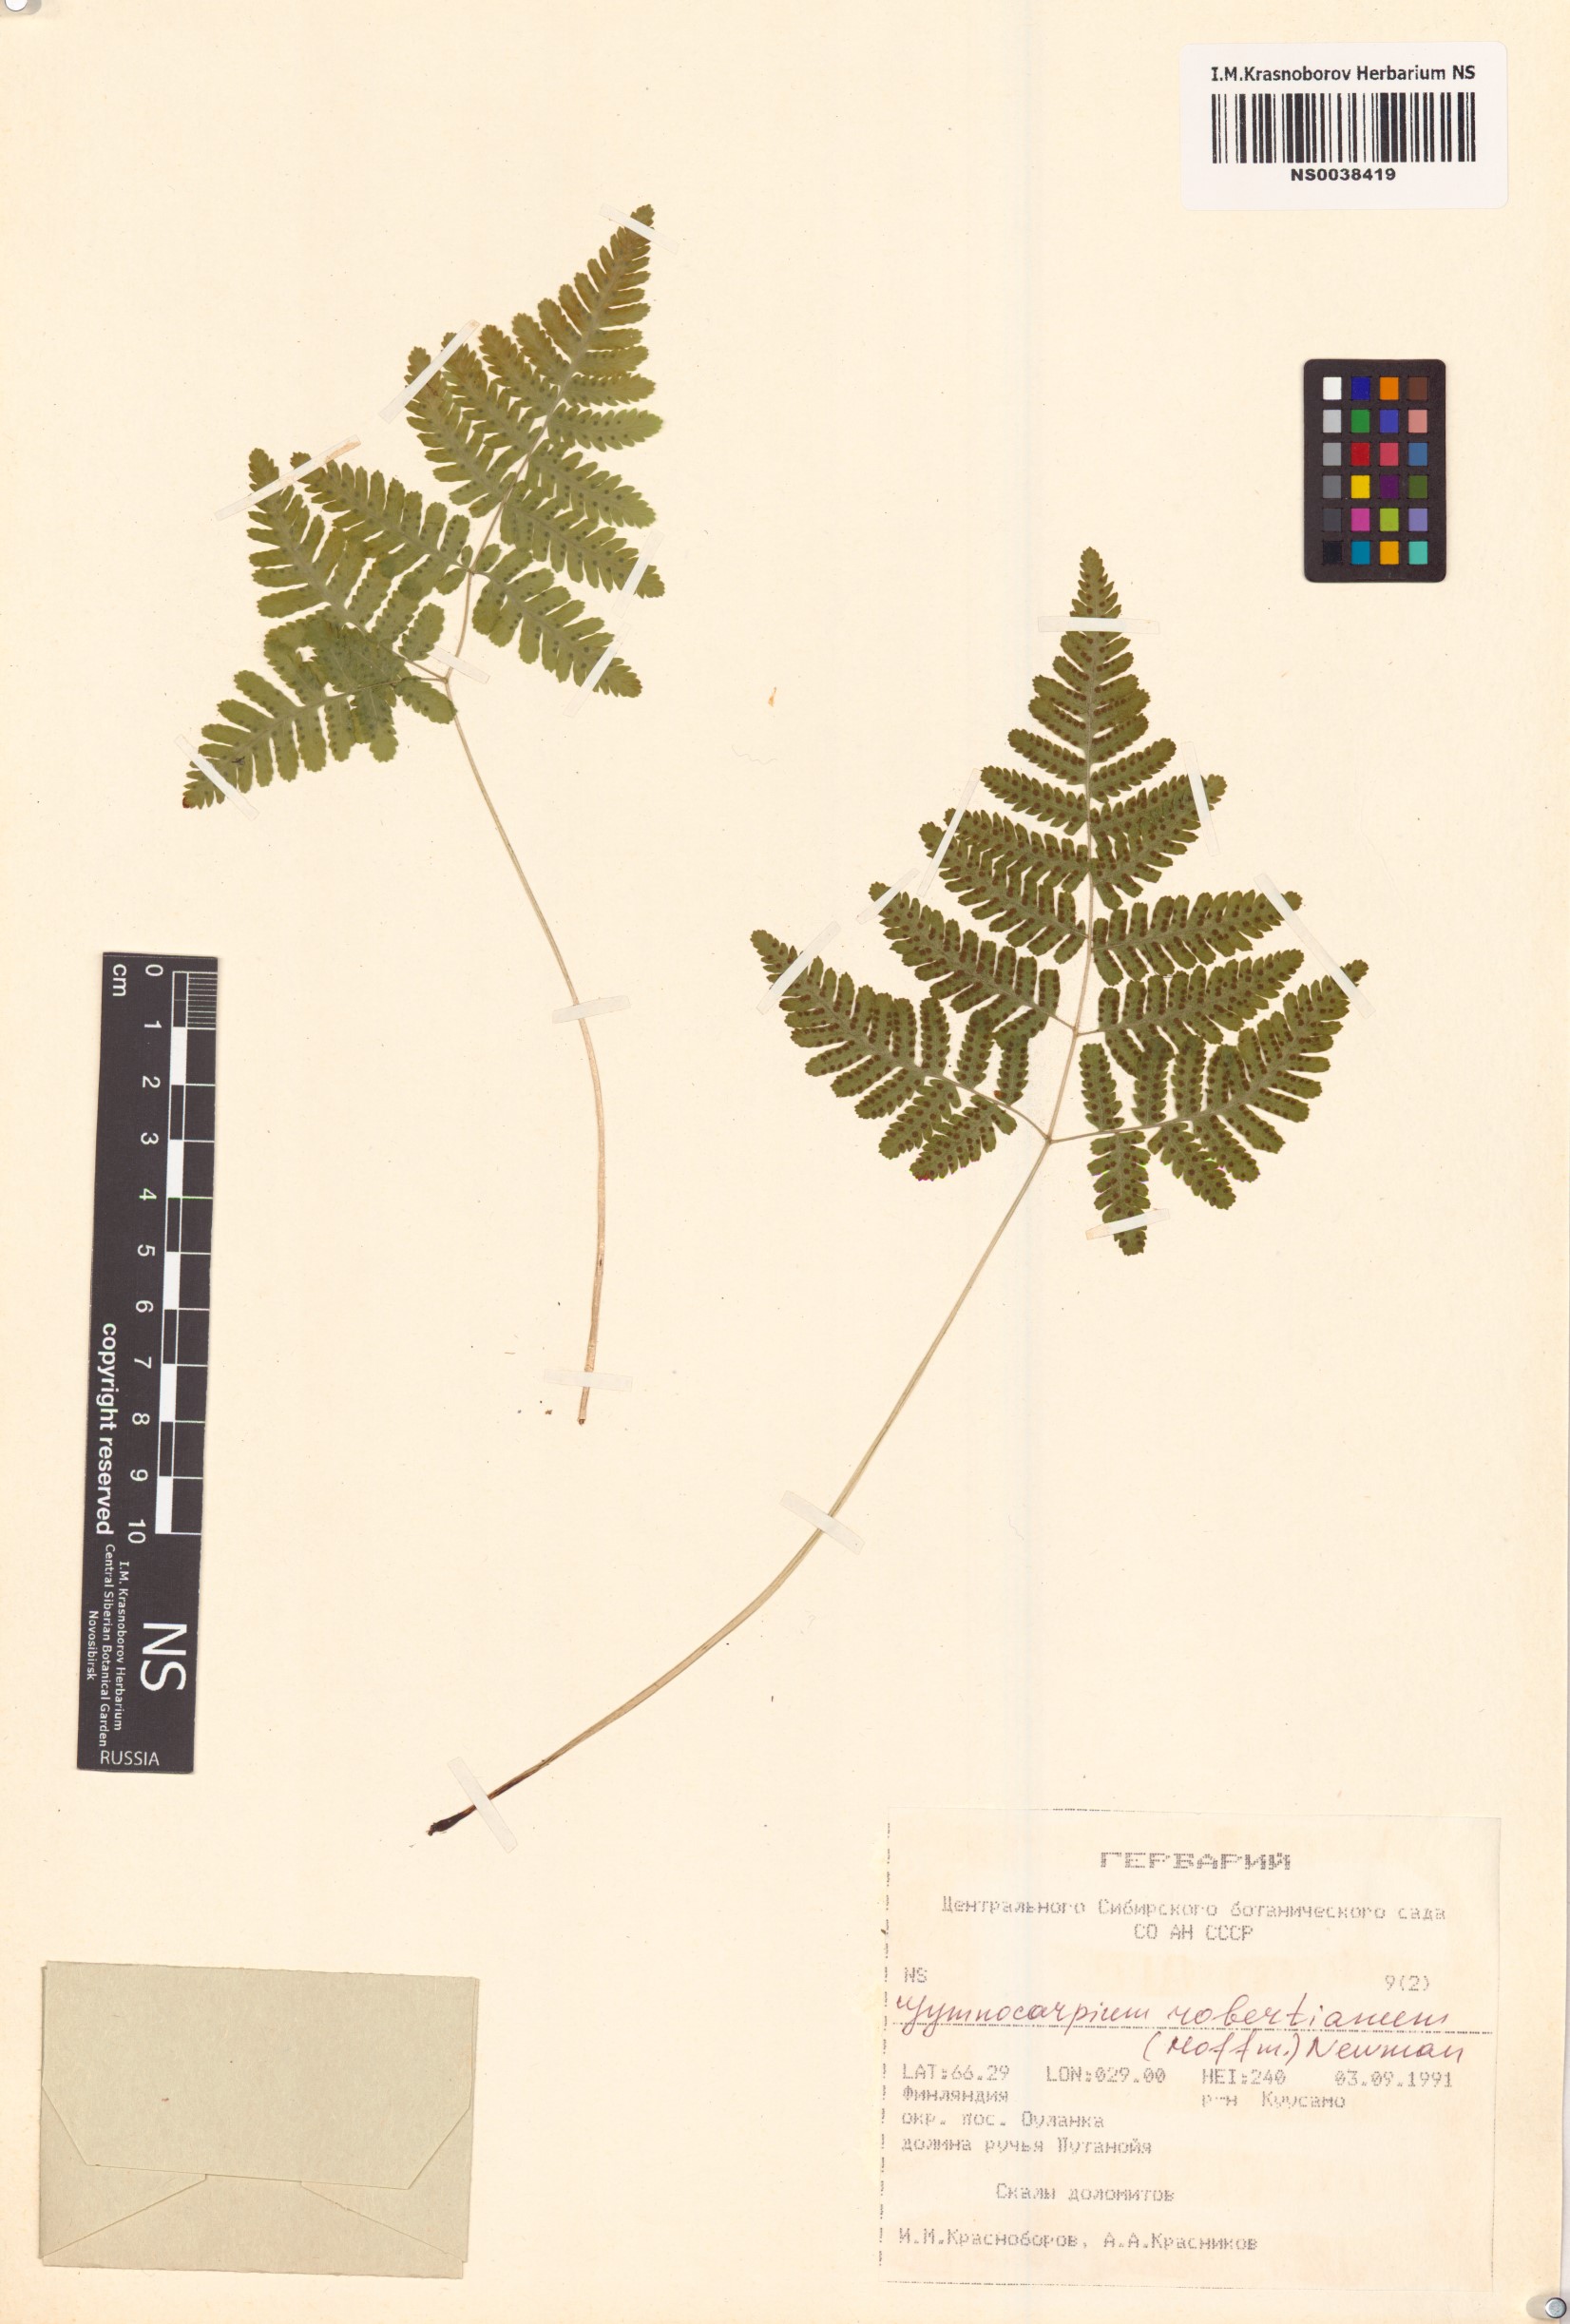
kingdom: Plantae
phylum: Tracheophyta
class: Polypodiopsida
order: Polypodiales
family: Cystopteridaceae
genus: Gymnocarpium
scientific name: Gymnocarpium robertianum
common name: Limestone fern
